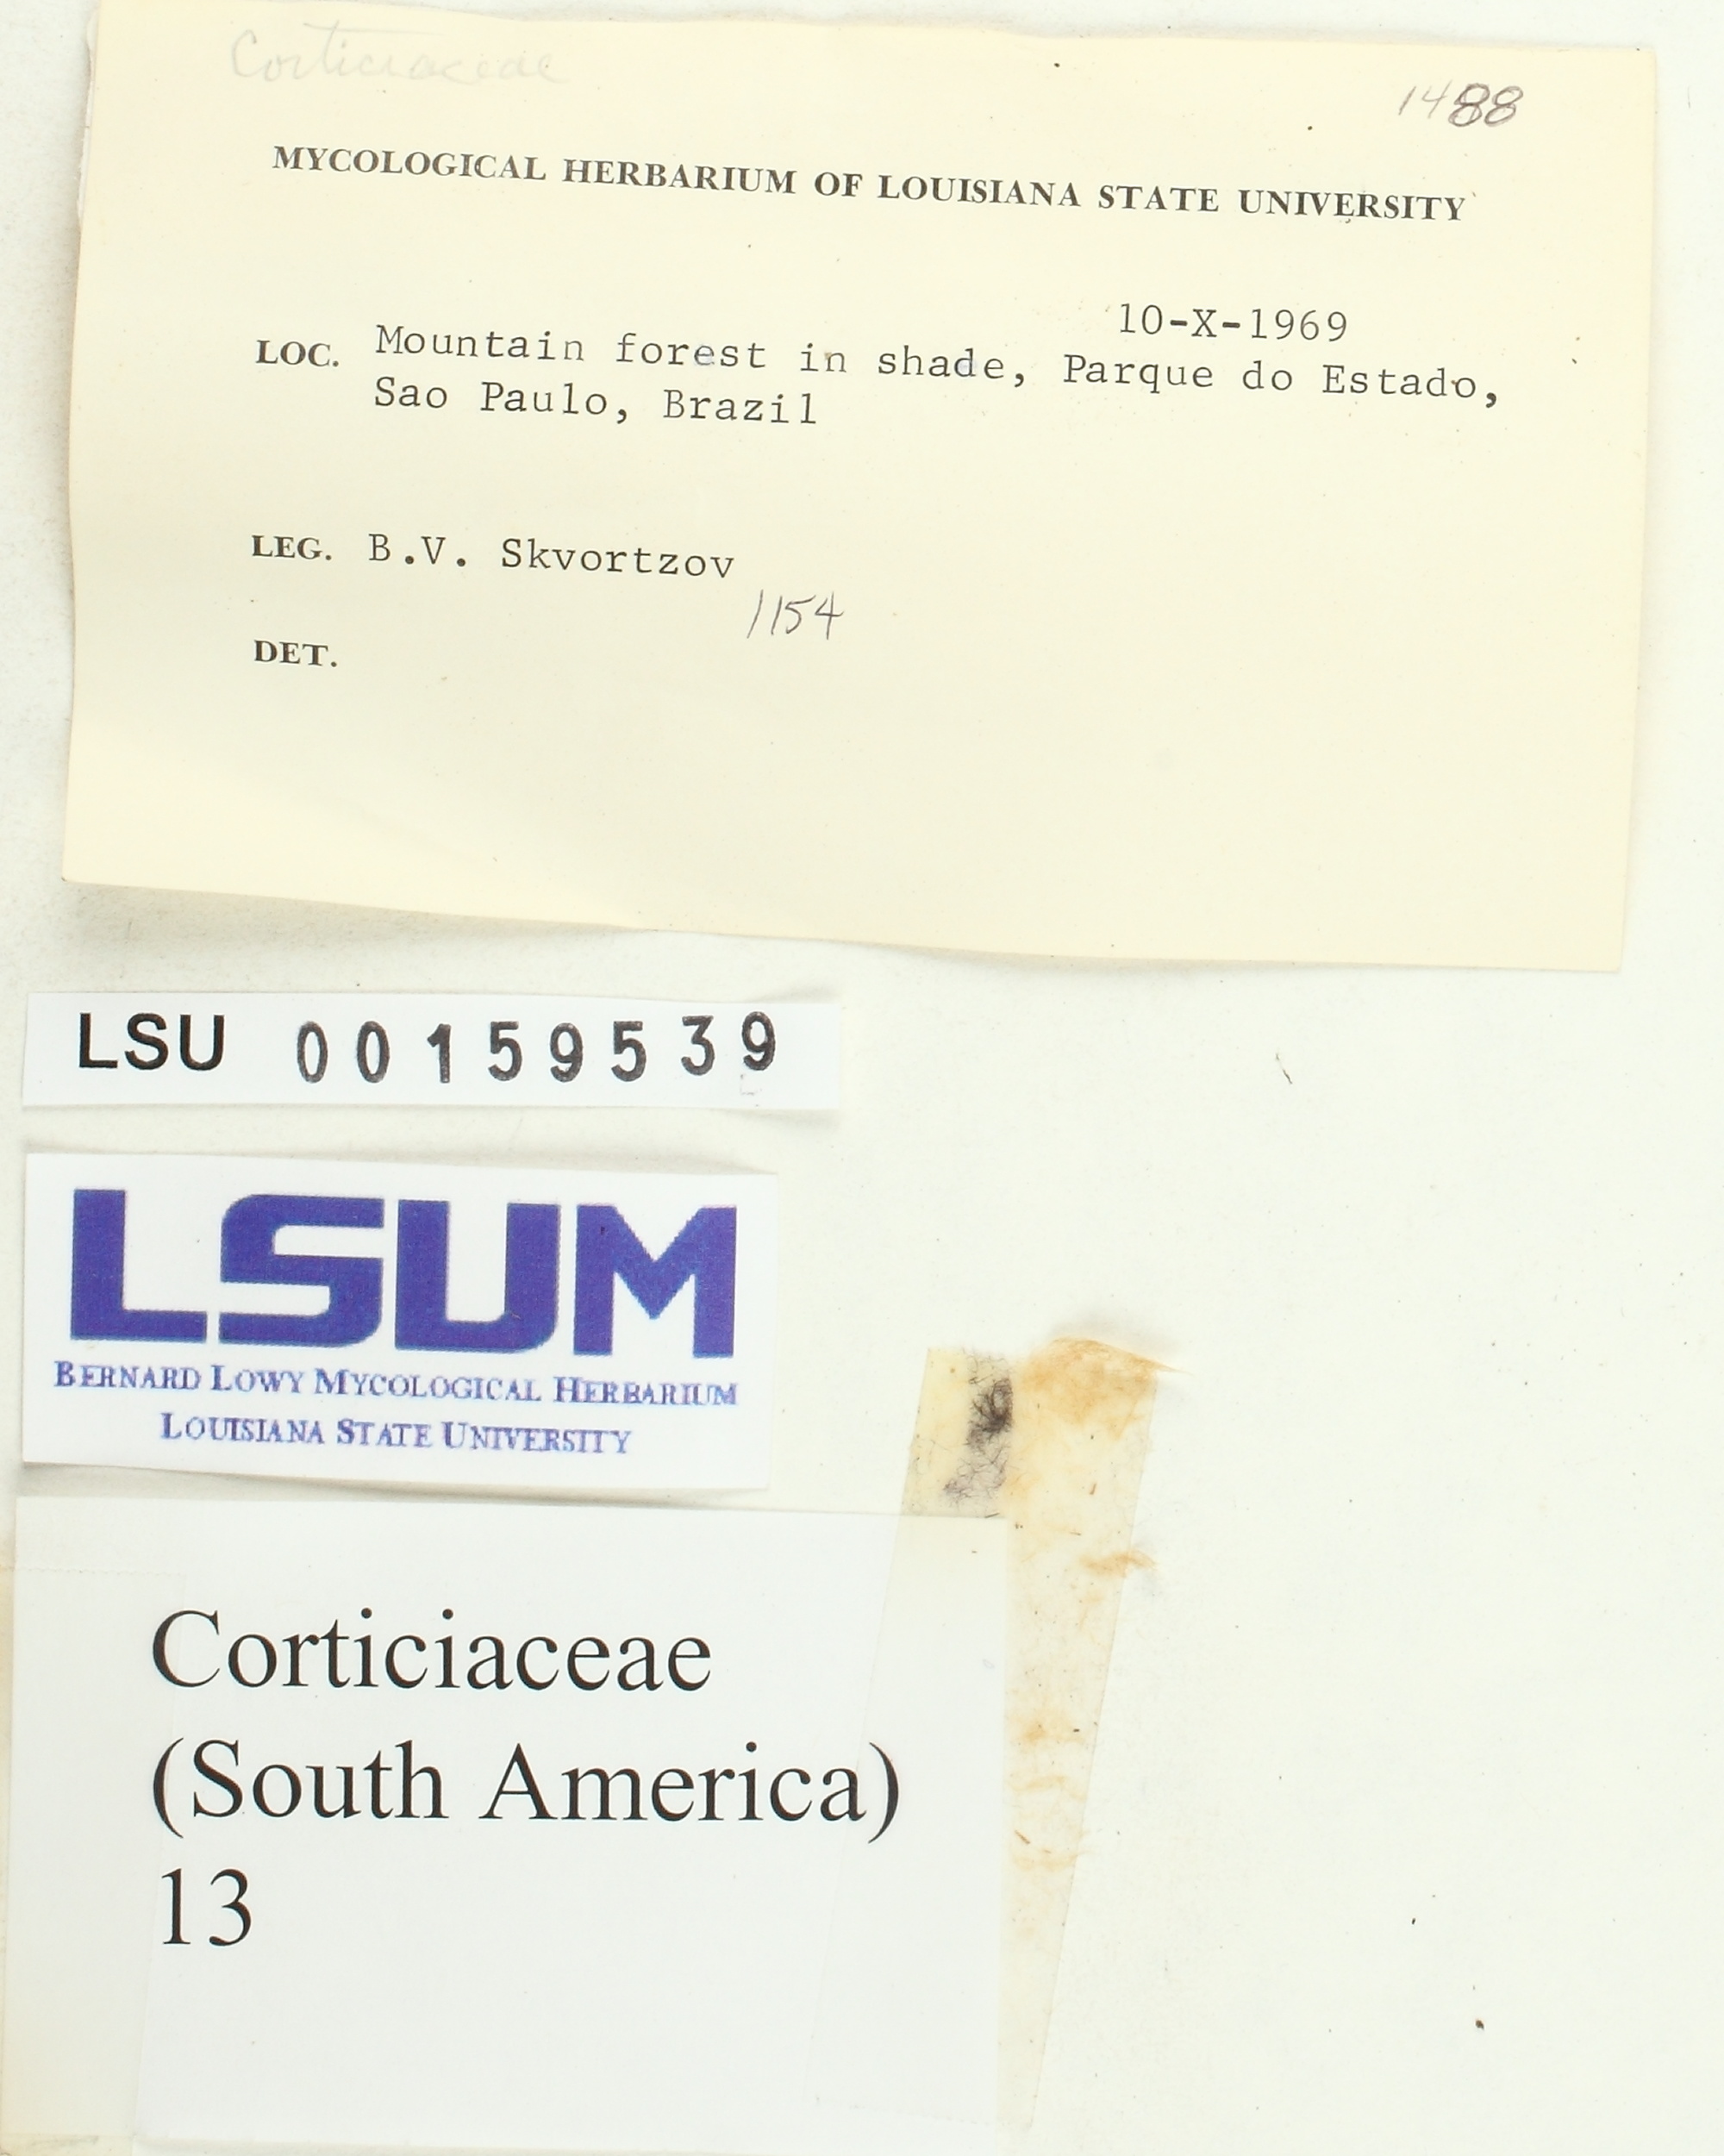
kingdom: Fungi
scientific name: Fungi
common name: Fungi
